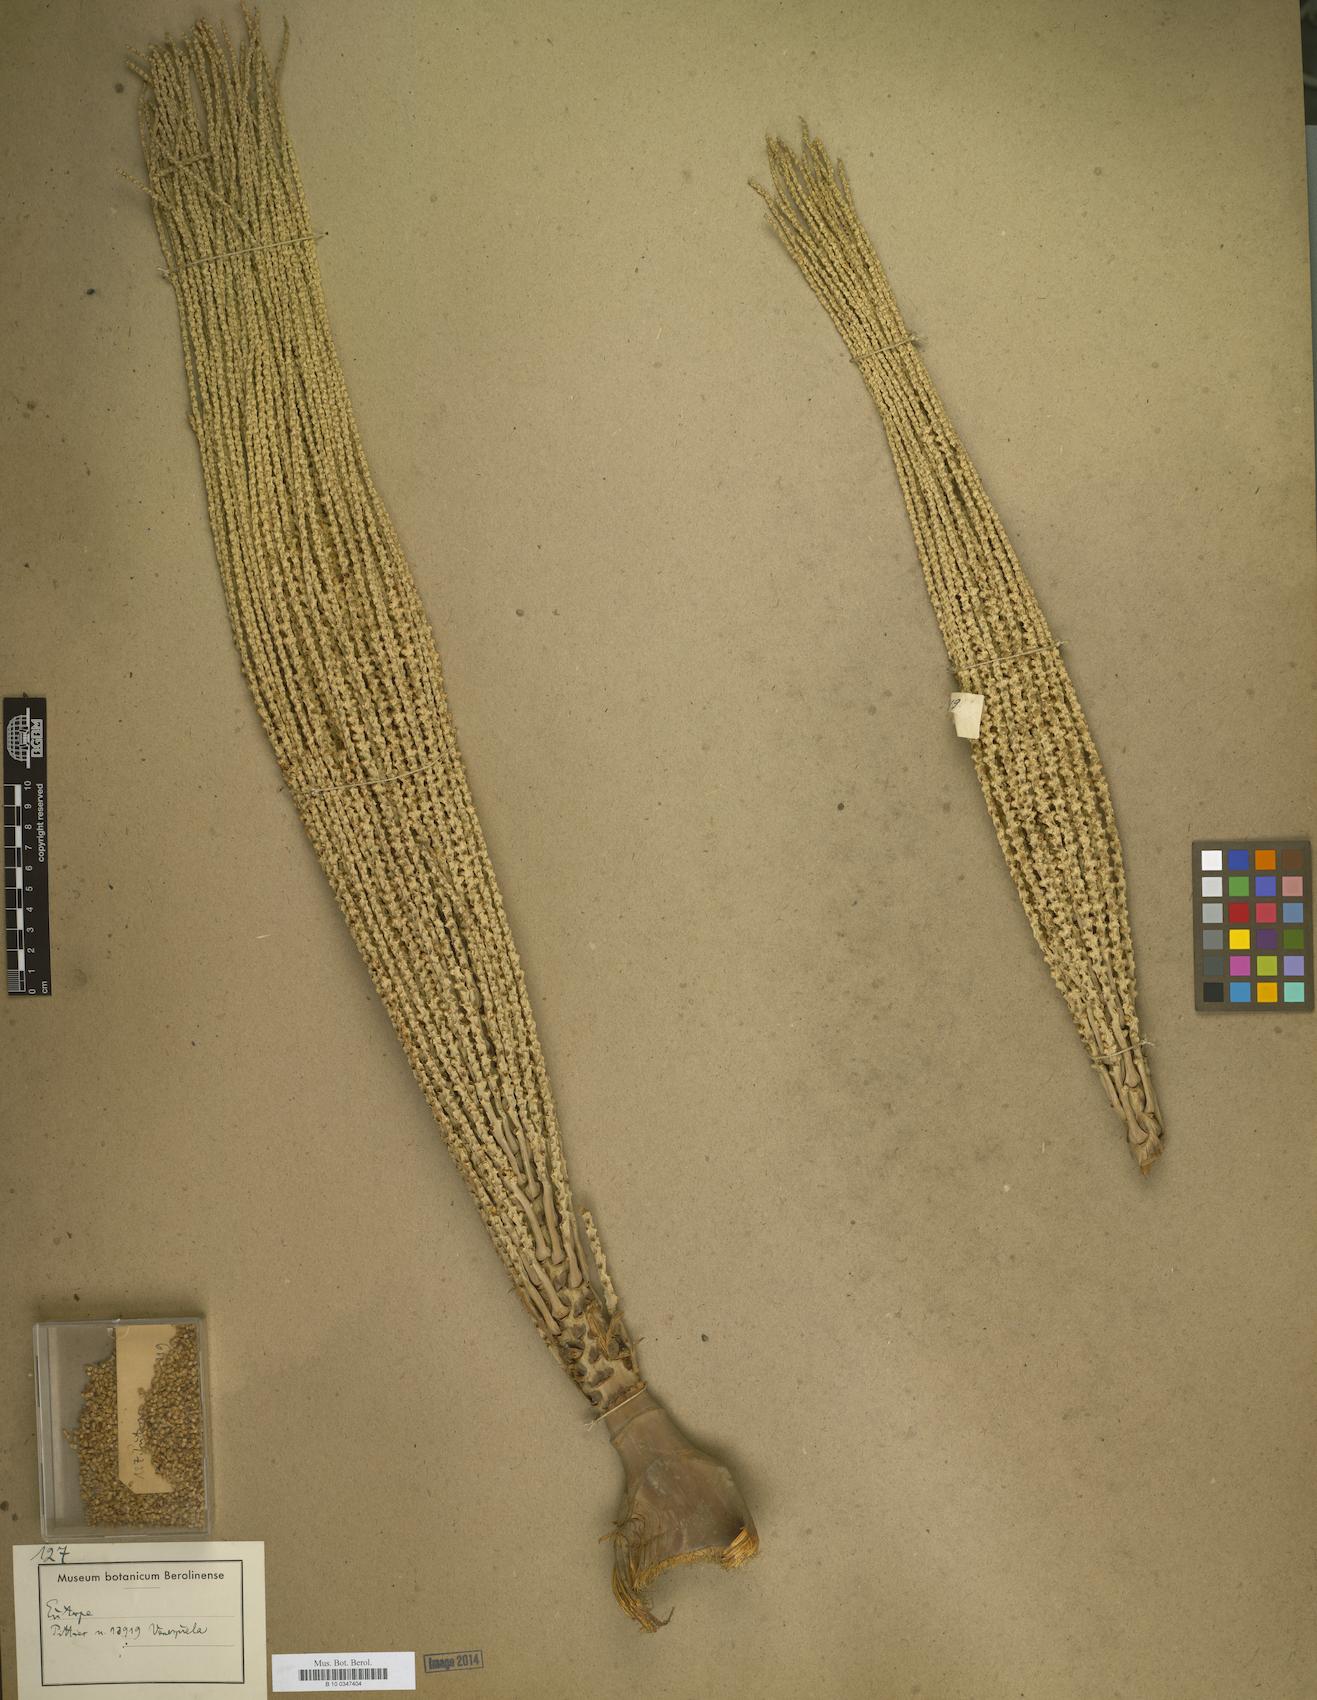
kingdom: Plantae
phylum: Tracheophyta
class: Liliopsida
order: Arecales
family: Arecaceae
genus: Euterpe
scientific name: Euterpe
